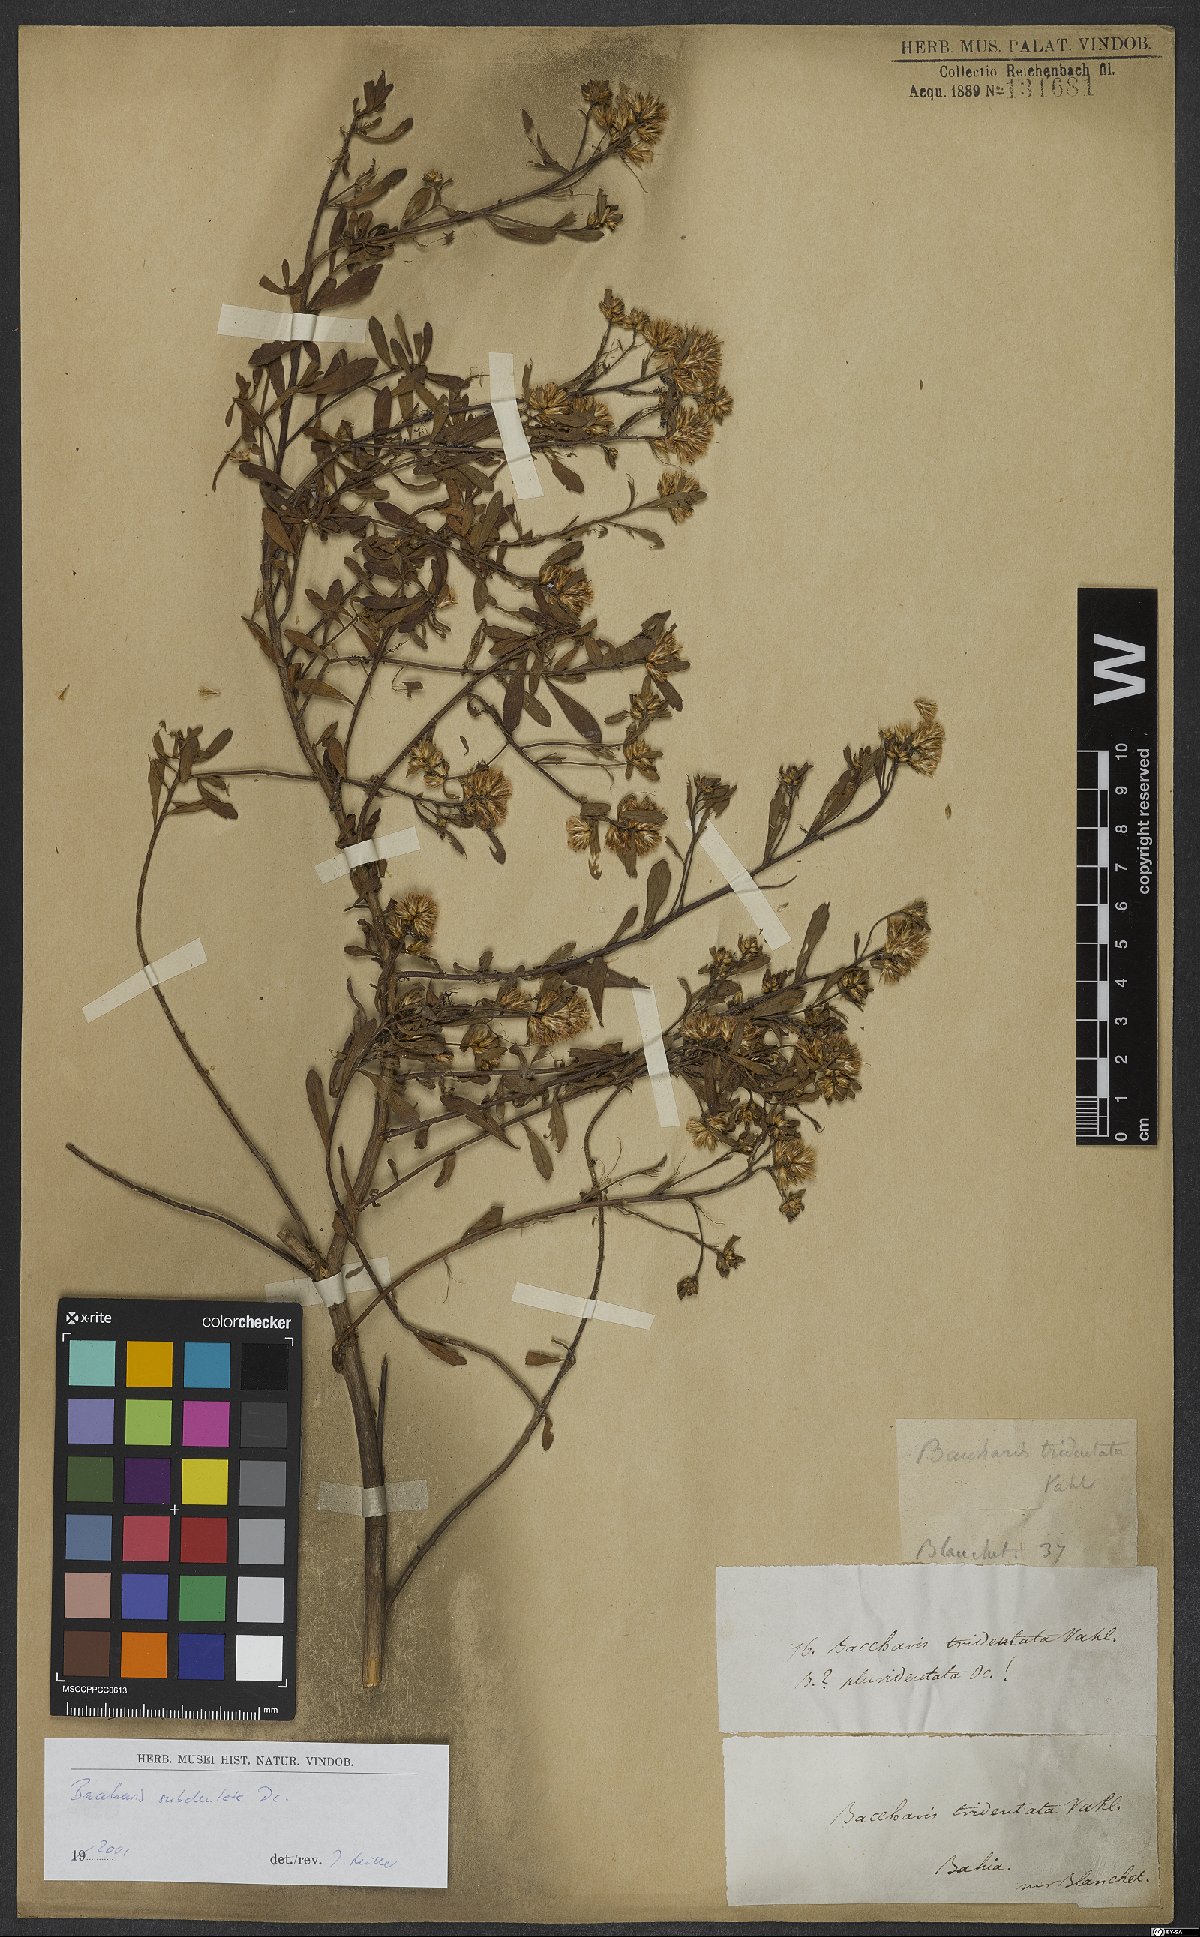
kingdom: Plantae
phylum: Tracheophyta
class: Magnoliopsida
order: Asterales
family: Asteraceae
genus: Baccharis
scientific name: Baccharis subdentata
